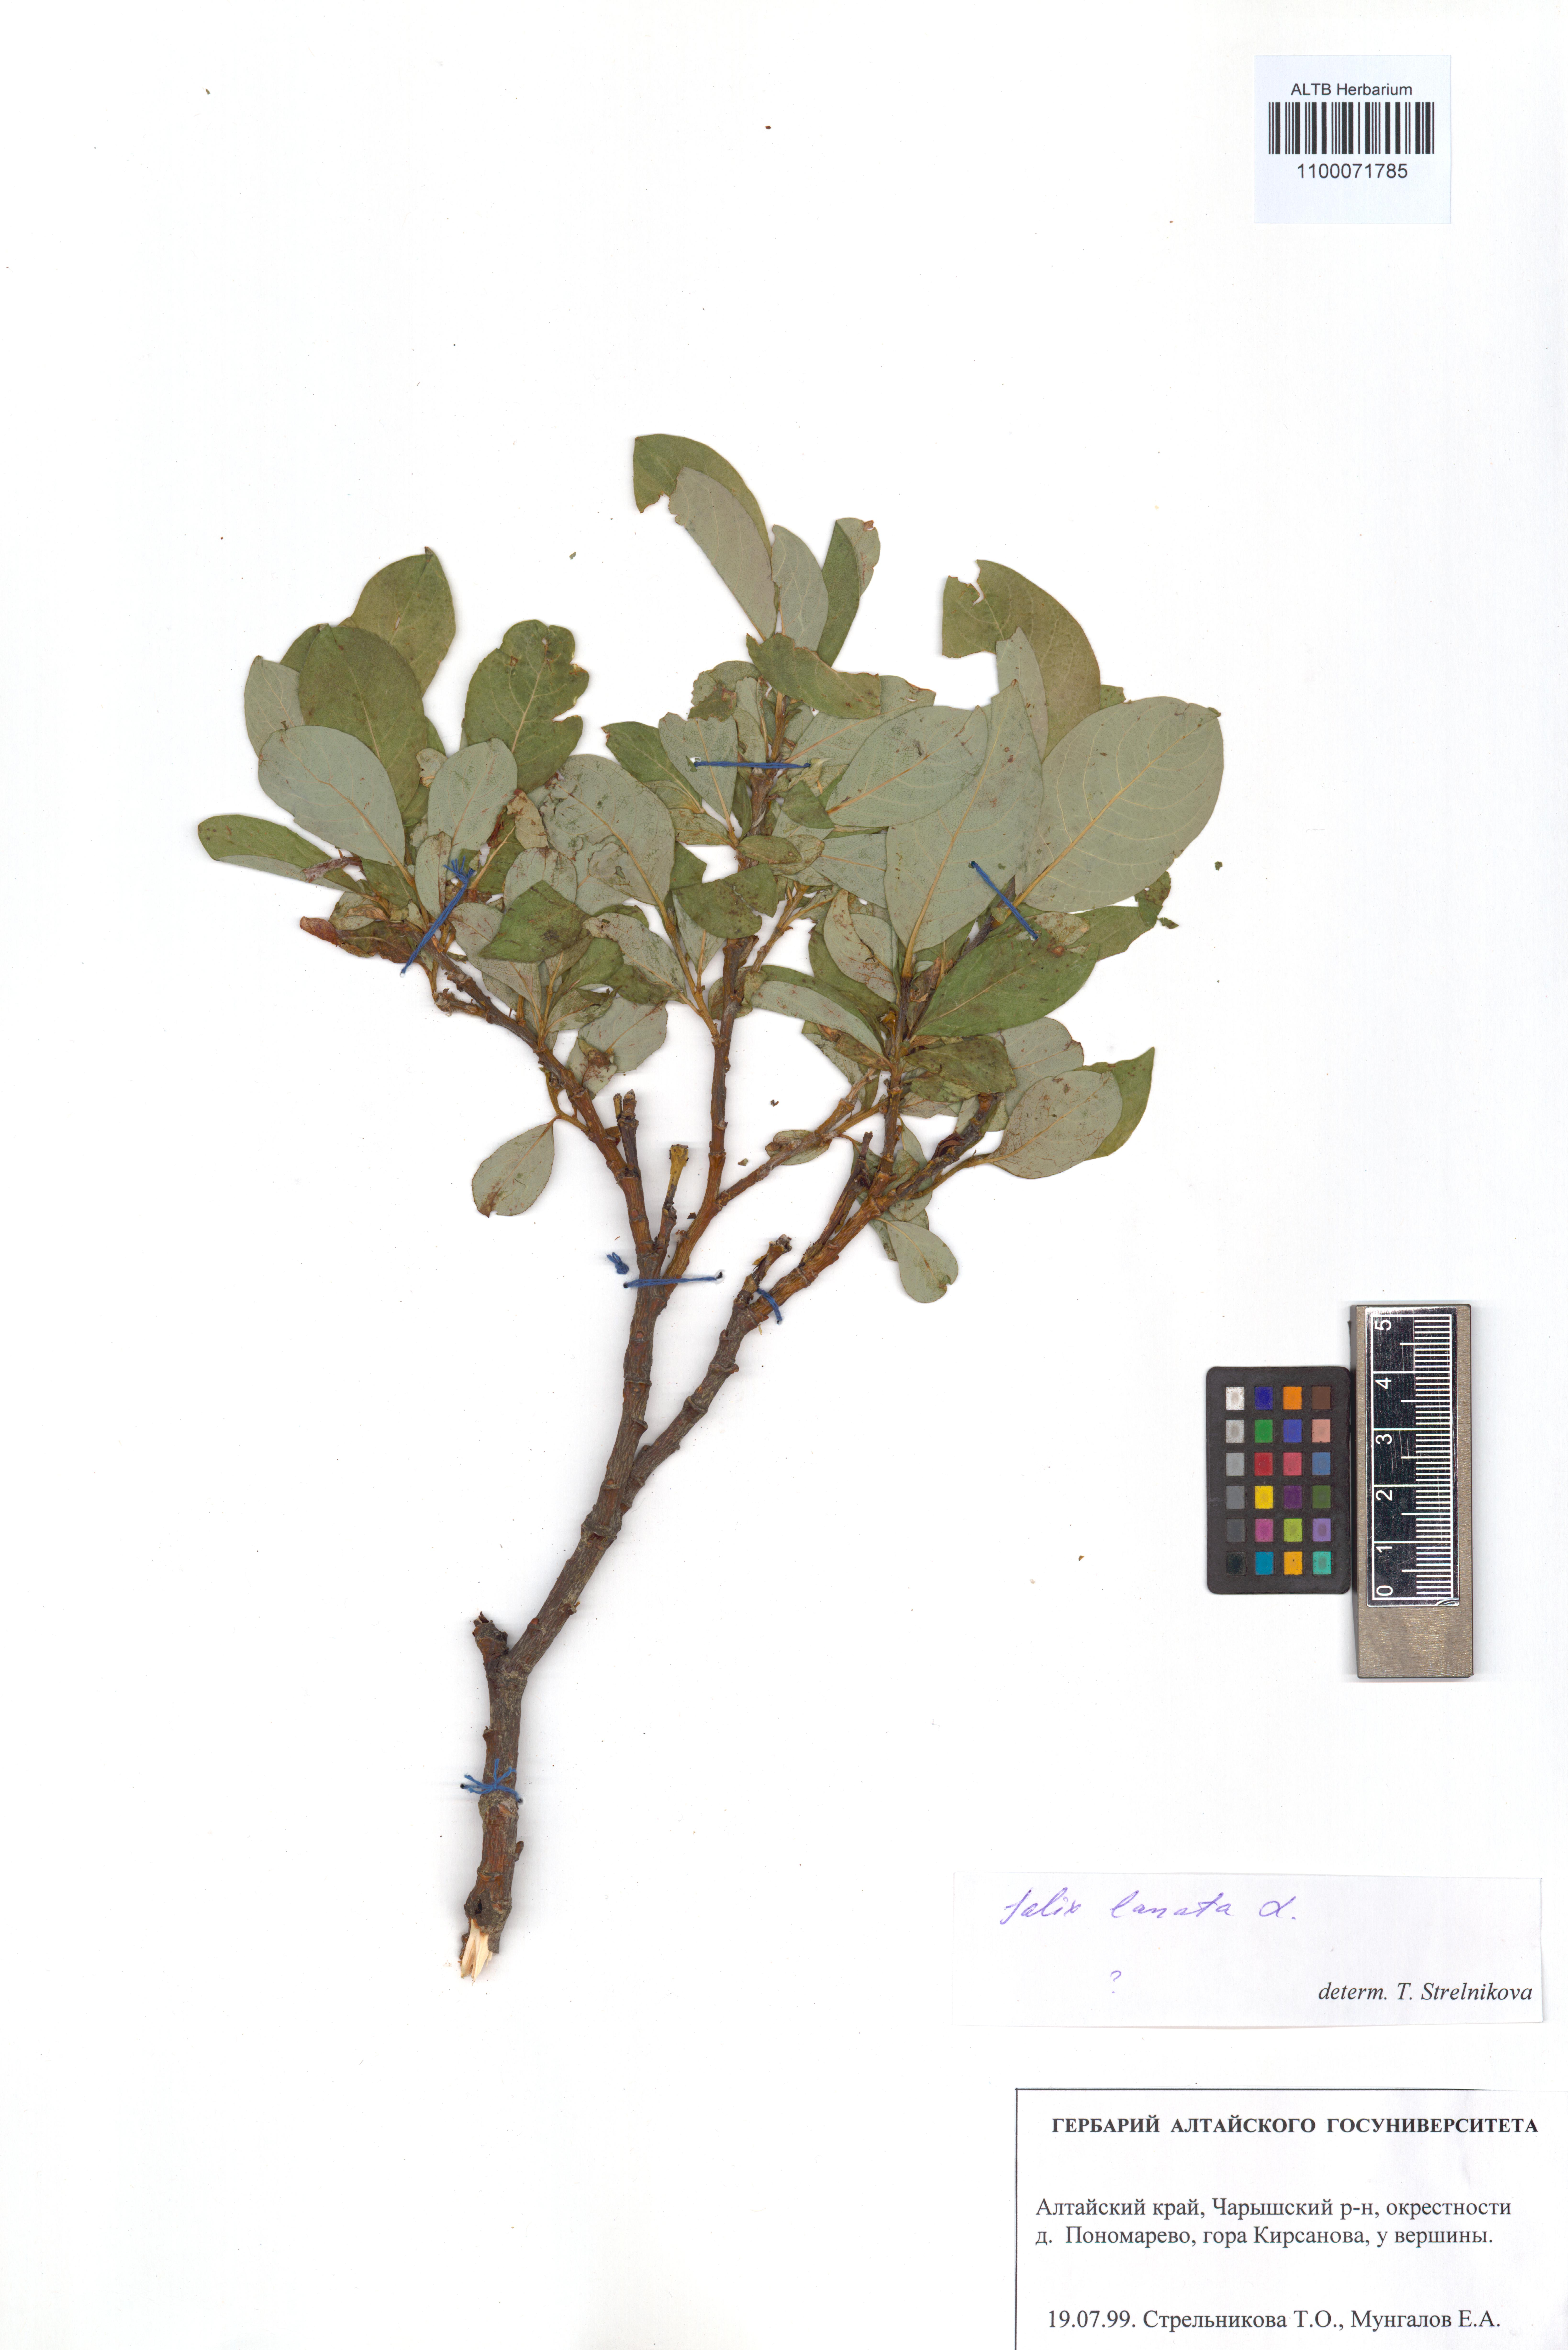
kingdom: Plantae
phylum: Tracheophyta
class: Magnoliopsida
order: Malpighiales
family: Salicaceae
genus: Salix
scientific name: Salix lanata
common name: Woolly willow
